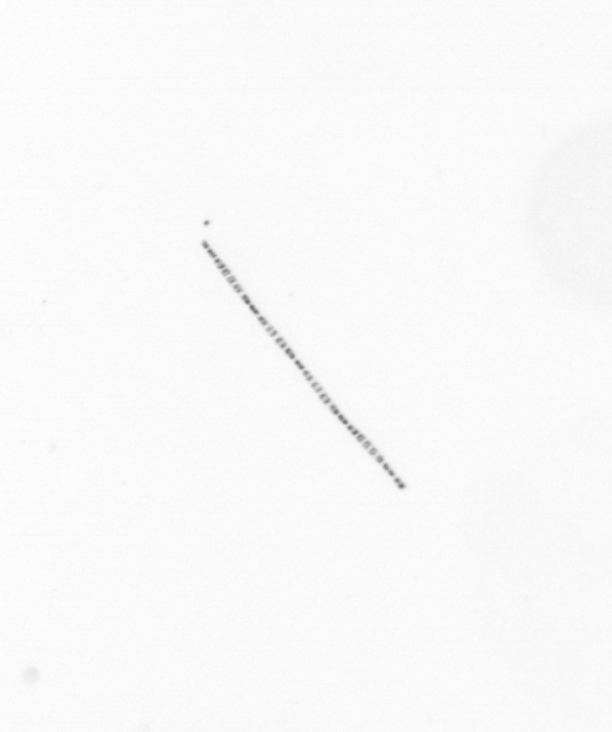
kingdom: Chromista
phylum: Ochrophyta
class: Bacillariophyceae
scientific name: Bacillariophyceae
